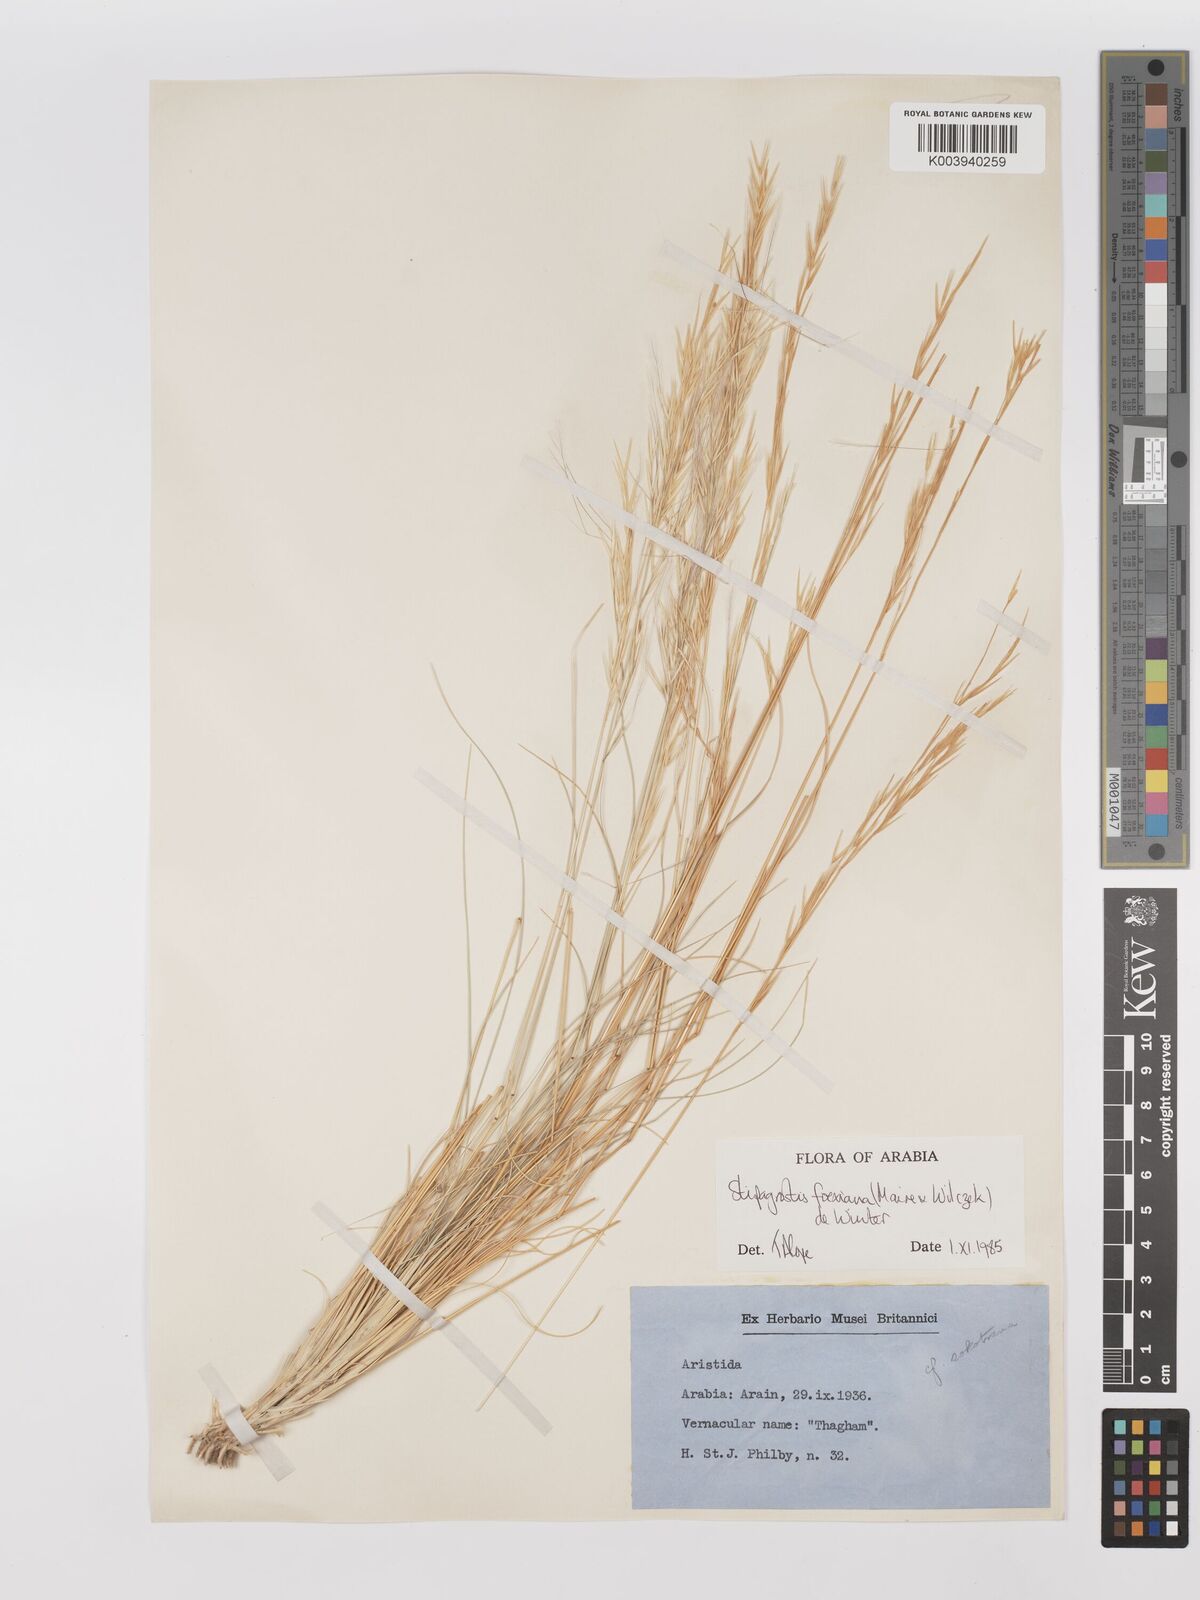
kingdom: Plantae
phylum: Tracheophyta
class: Liliopsida
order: Poales
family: Poaceae
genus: Stipagrostis
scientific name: Stipagrostis foexiana
